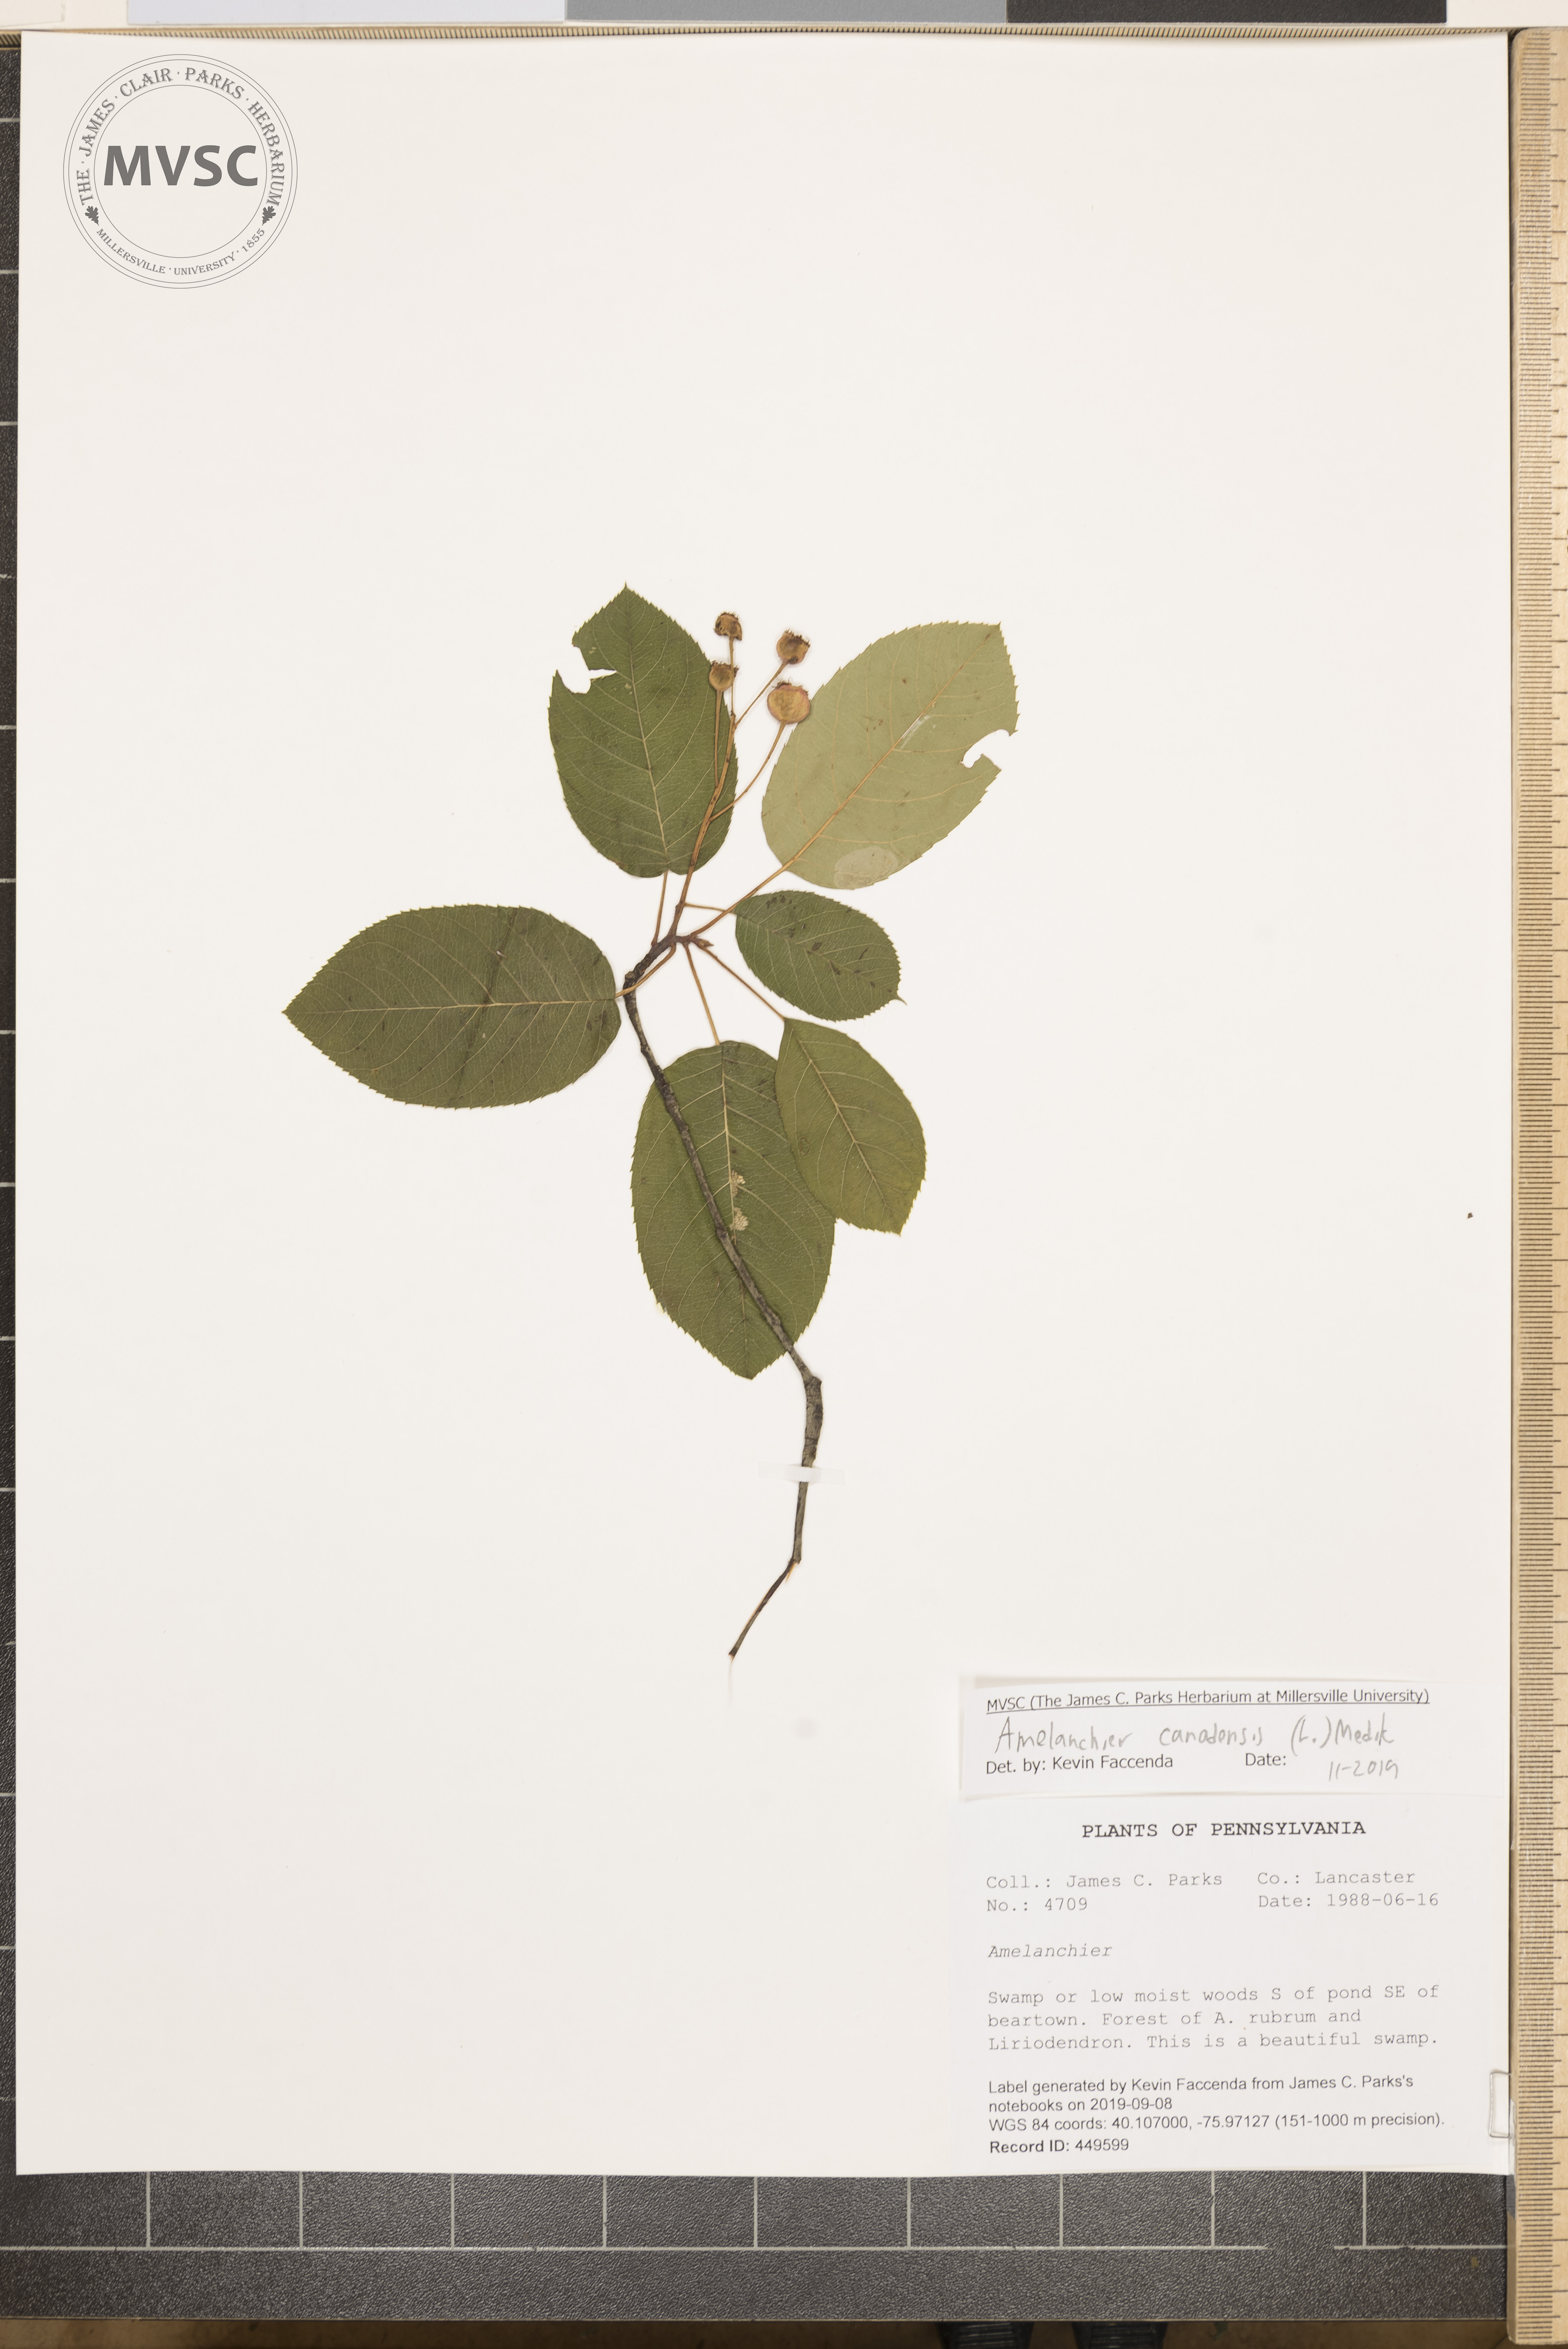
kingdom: Plantae
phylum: Tracheophyta
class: Magnoliopsida
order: Rosales
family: Rosaceae
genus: Amelanchier
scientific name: Amelanchier canadensis
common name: Thicket serviceberry
